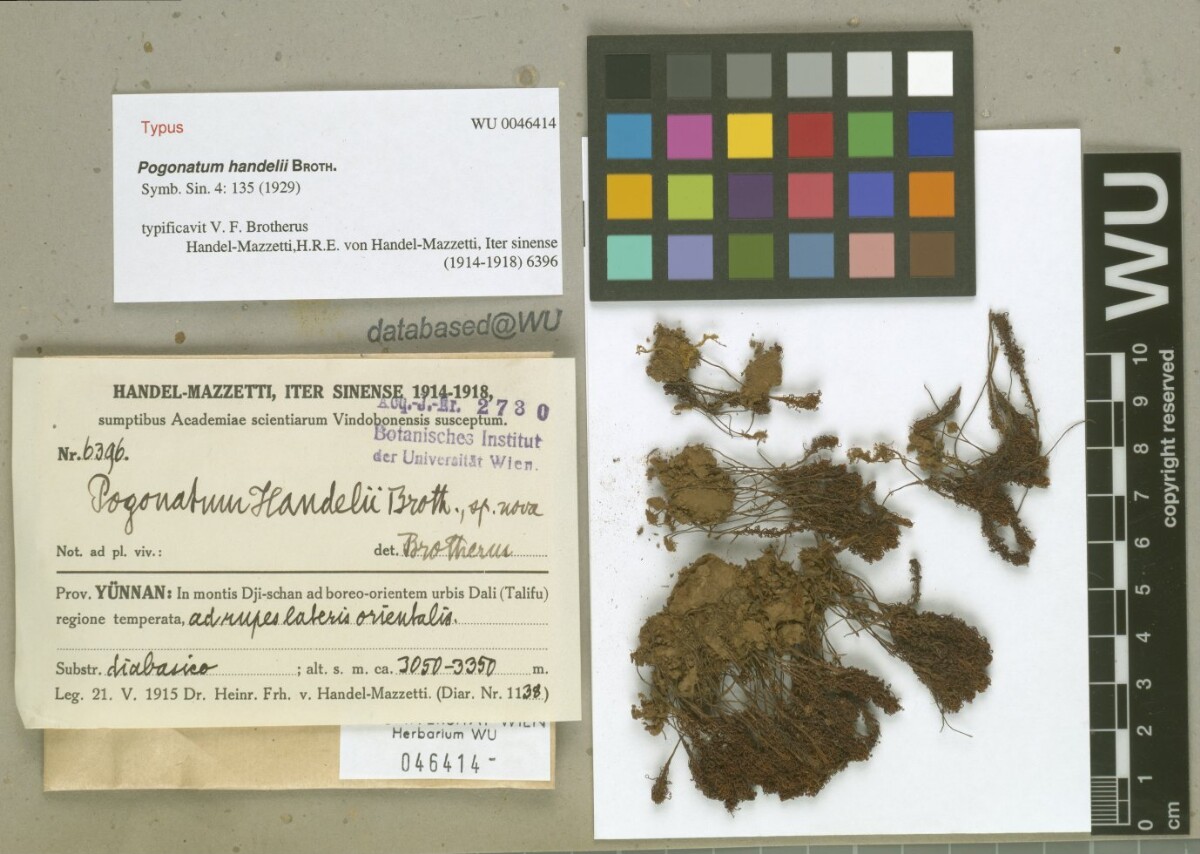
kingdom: Plantae
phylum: Bryophyta
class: Polytrichopsida
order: Polytrichales
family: Polytrichaceae
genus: Pogonatum
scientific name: Pogonatum nudiusculum
